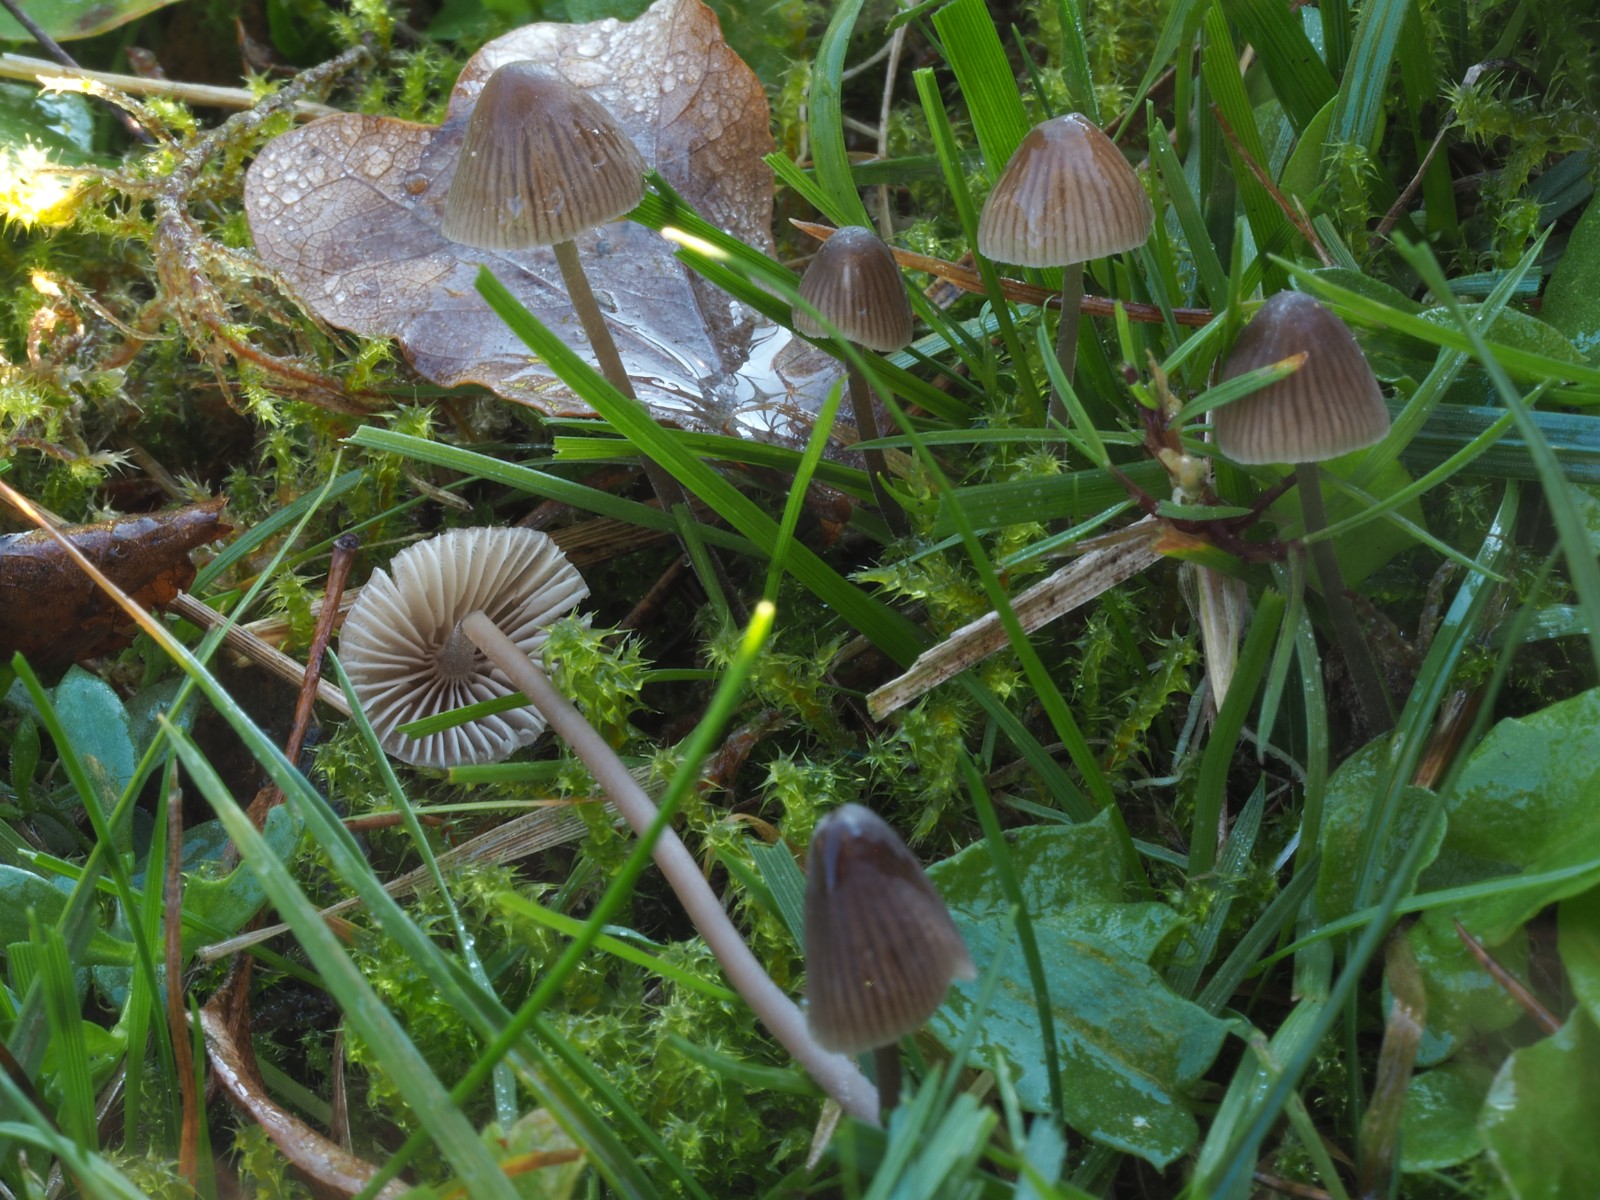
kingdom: Fungi
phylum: Basidiomycota
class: Agaricomycetes
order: Agaricales
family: Mycenaceae
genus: Mycena
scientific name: Mycena leptocephala
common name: klor-huesvamp
